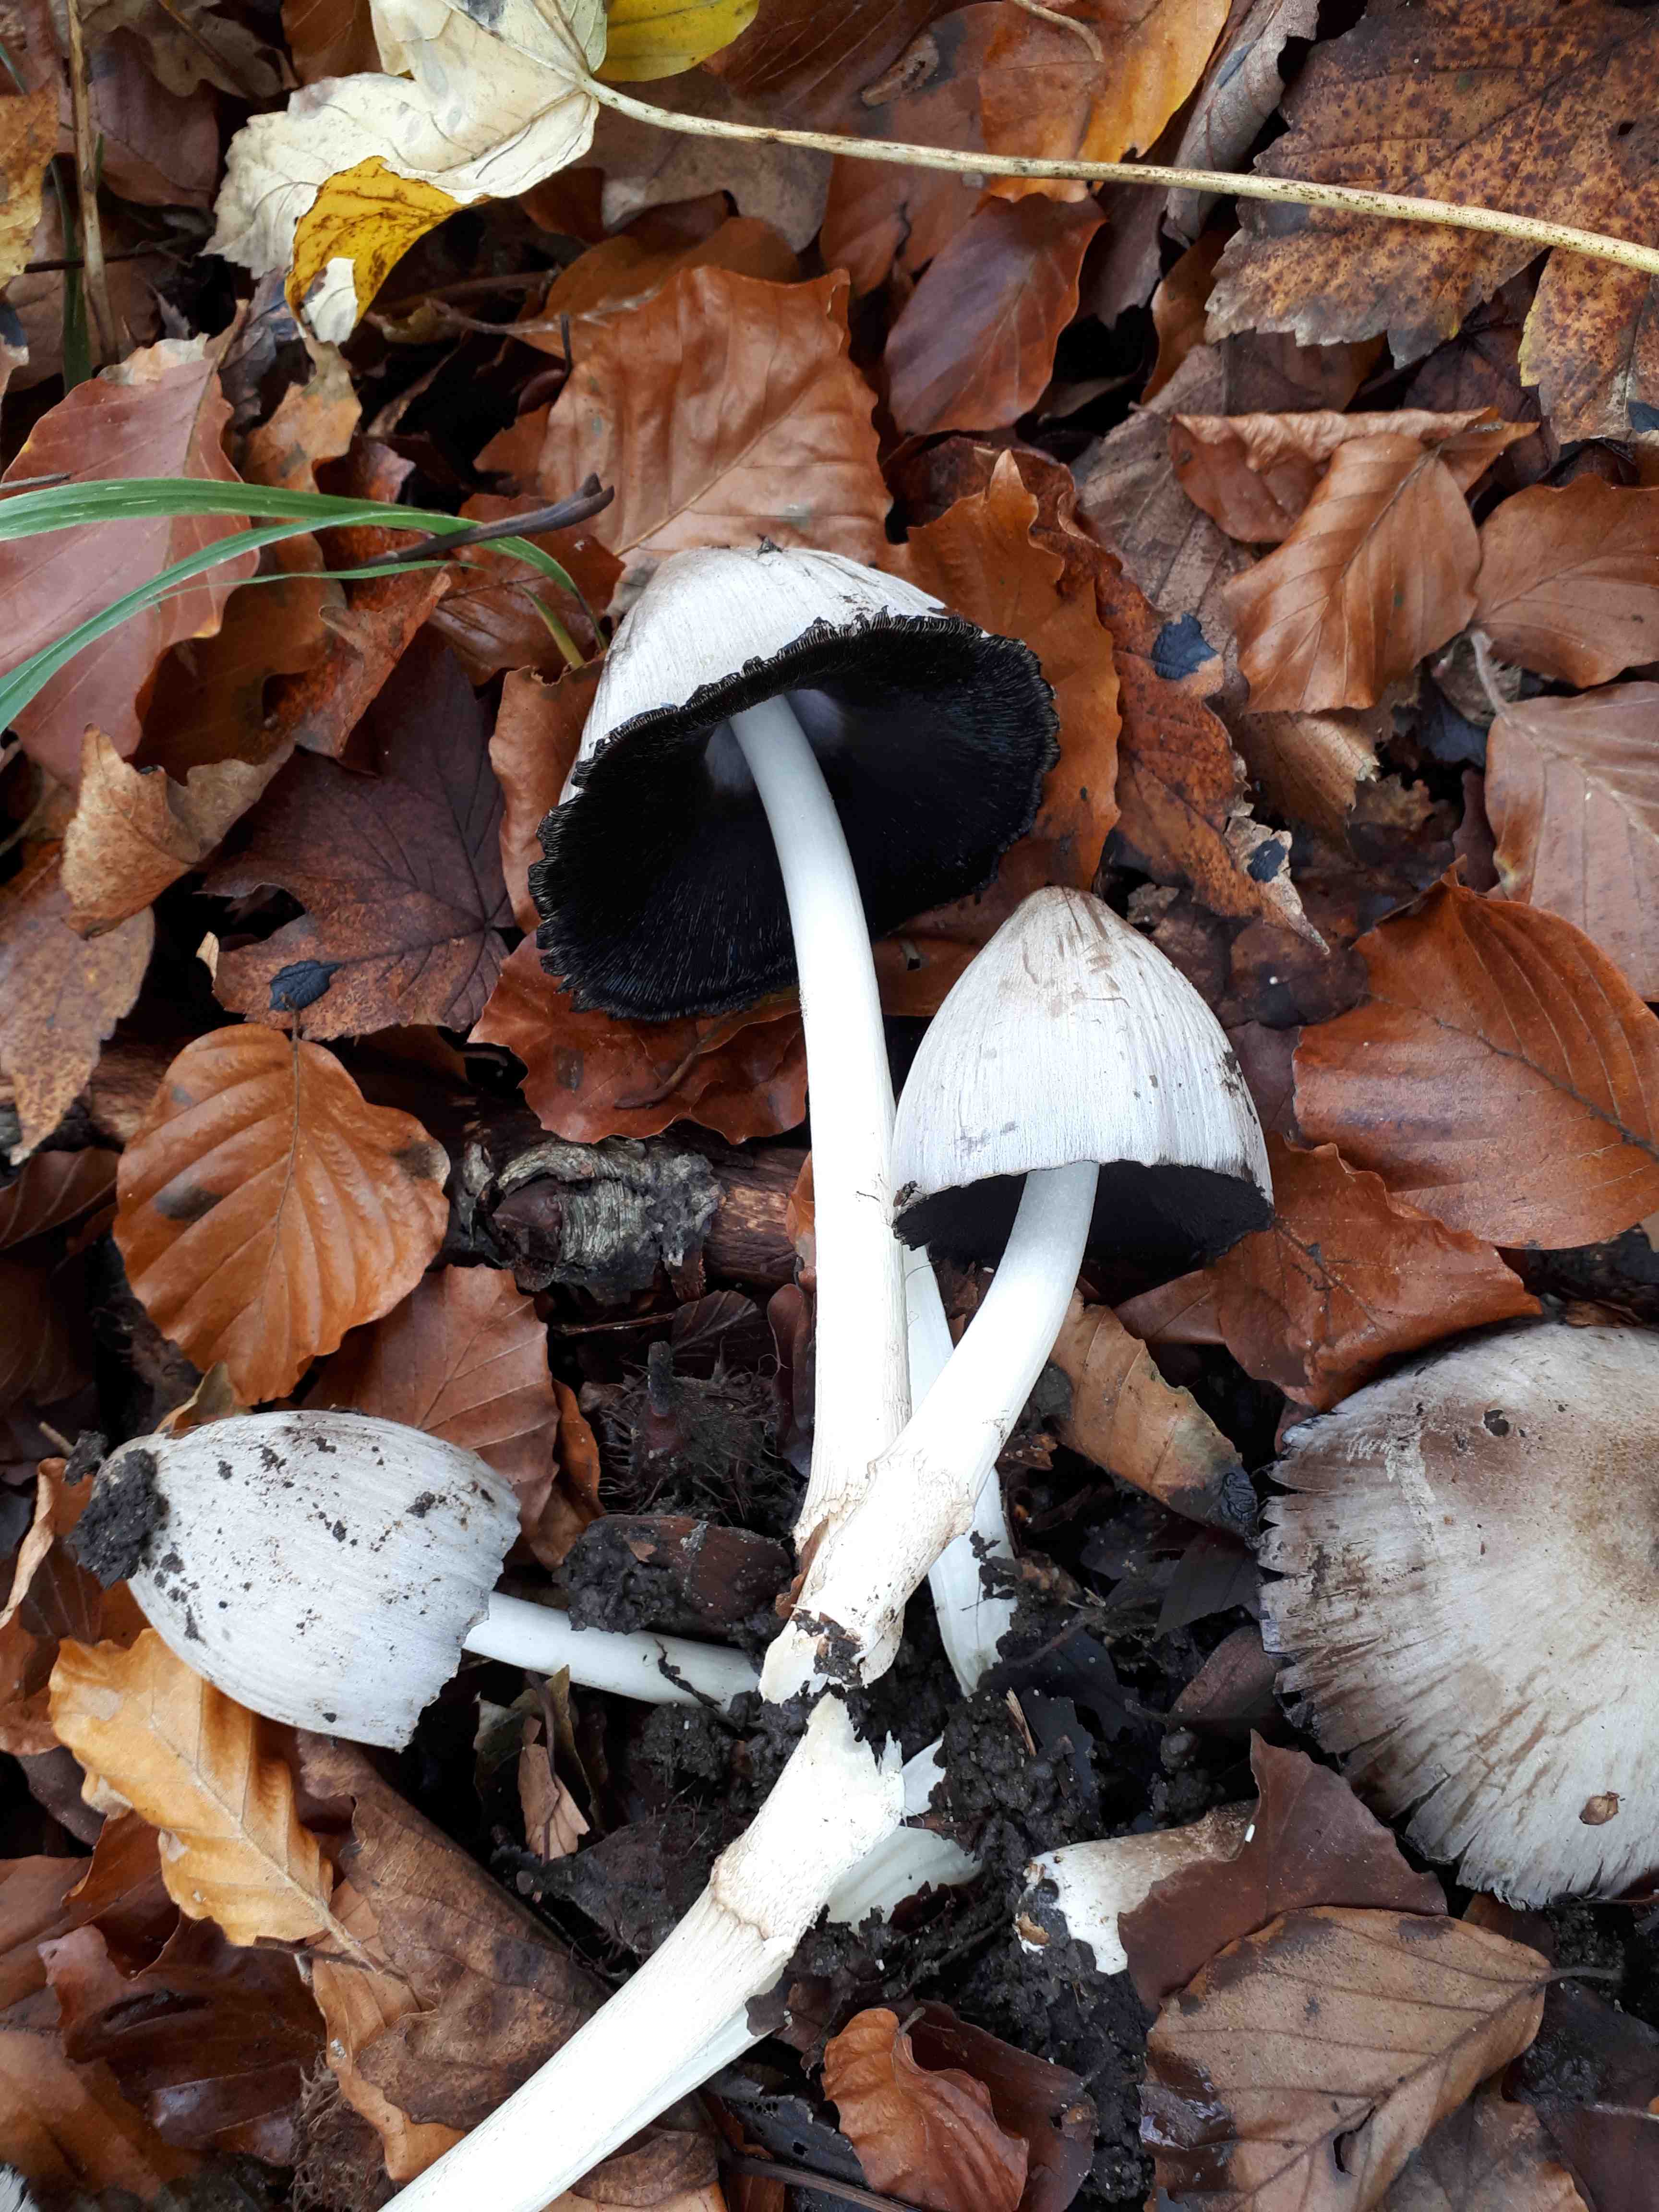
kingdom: Fungi
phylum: Basidiomycota
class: Agaricomycetes
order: Agaricales
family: Psathyrellaceae
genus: Coprinopsis
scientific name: Coprinopsis atramentaria
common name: almindelig blækhat
